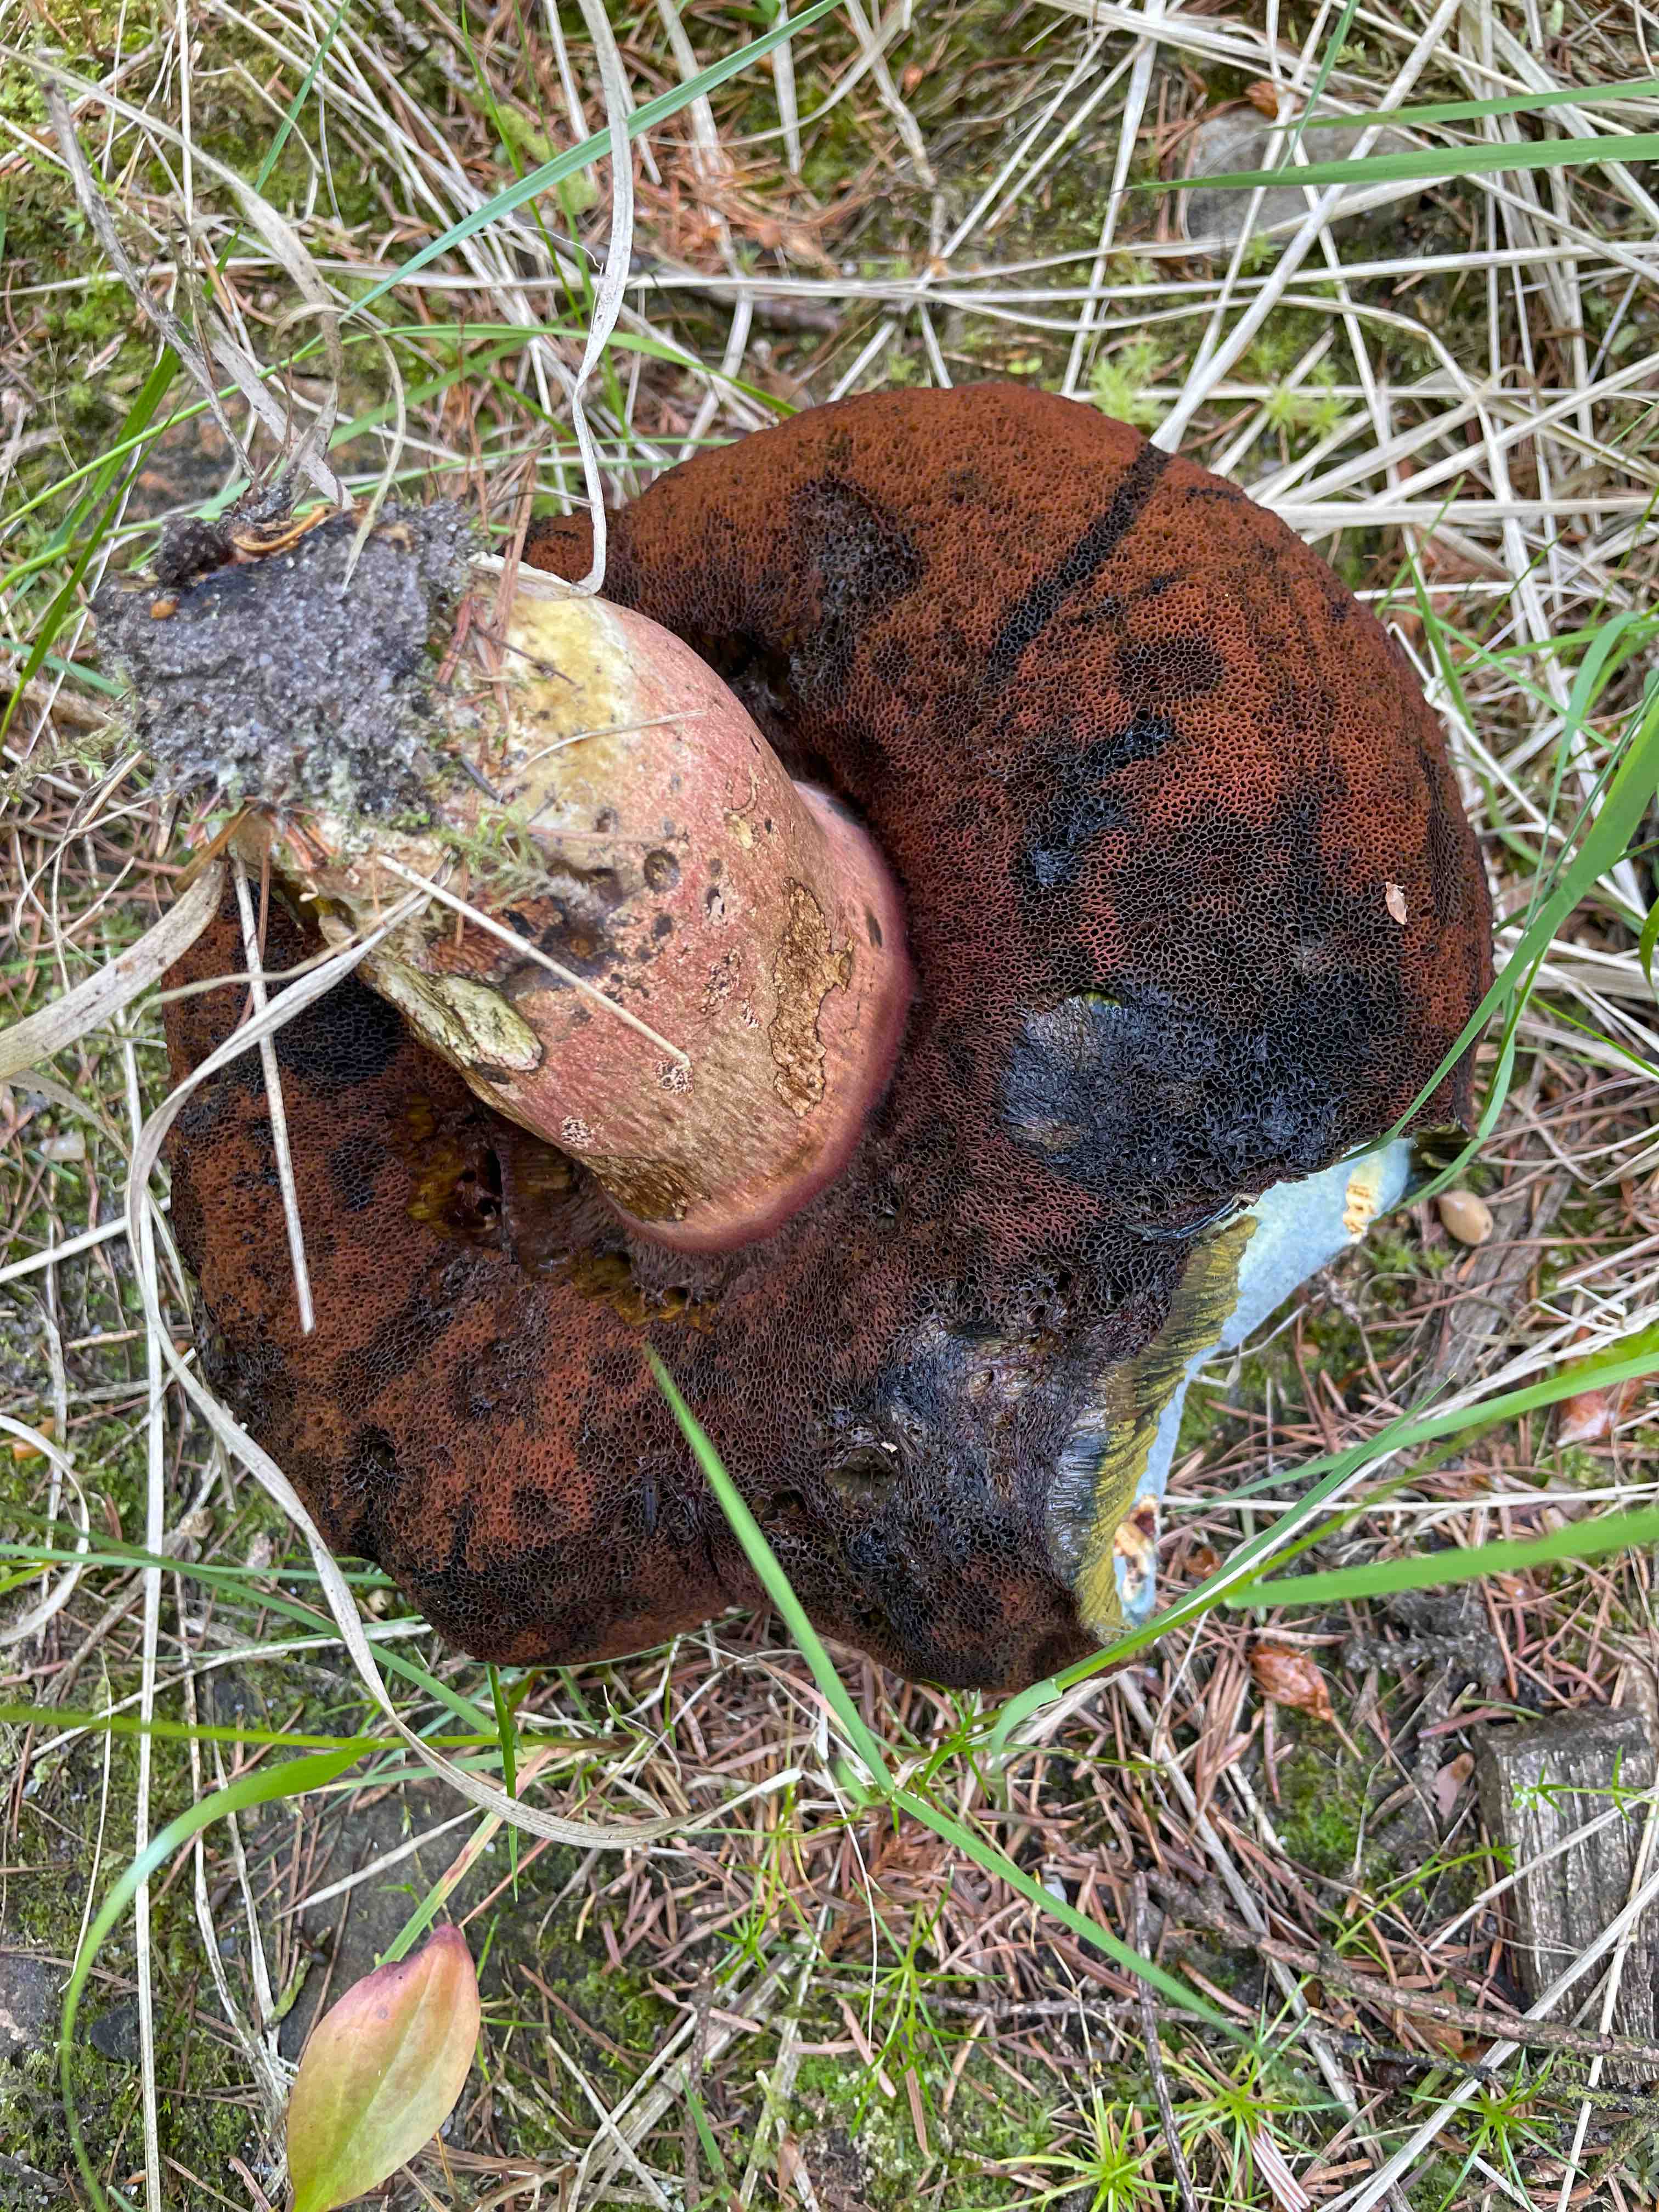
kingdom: Fungi
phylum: Basidiomycota
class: Agaricomycetes
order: Boletales
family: Boletaceae
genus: Neoboletus
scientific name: Neoboletus erythropus
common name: punktstokket indigorørhat
